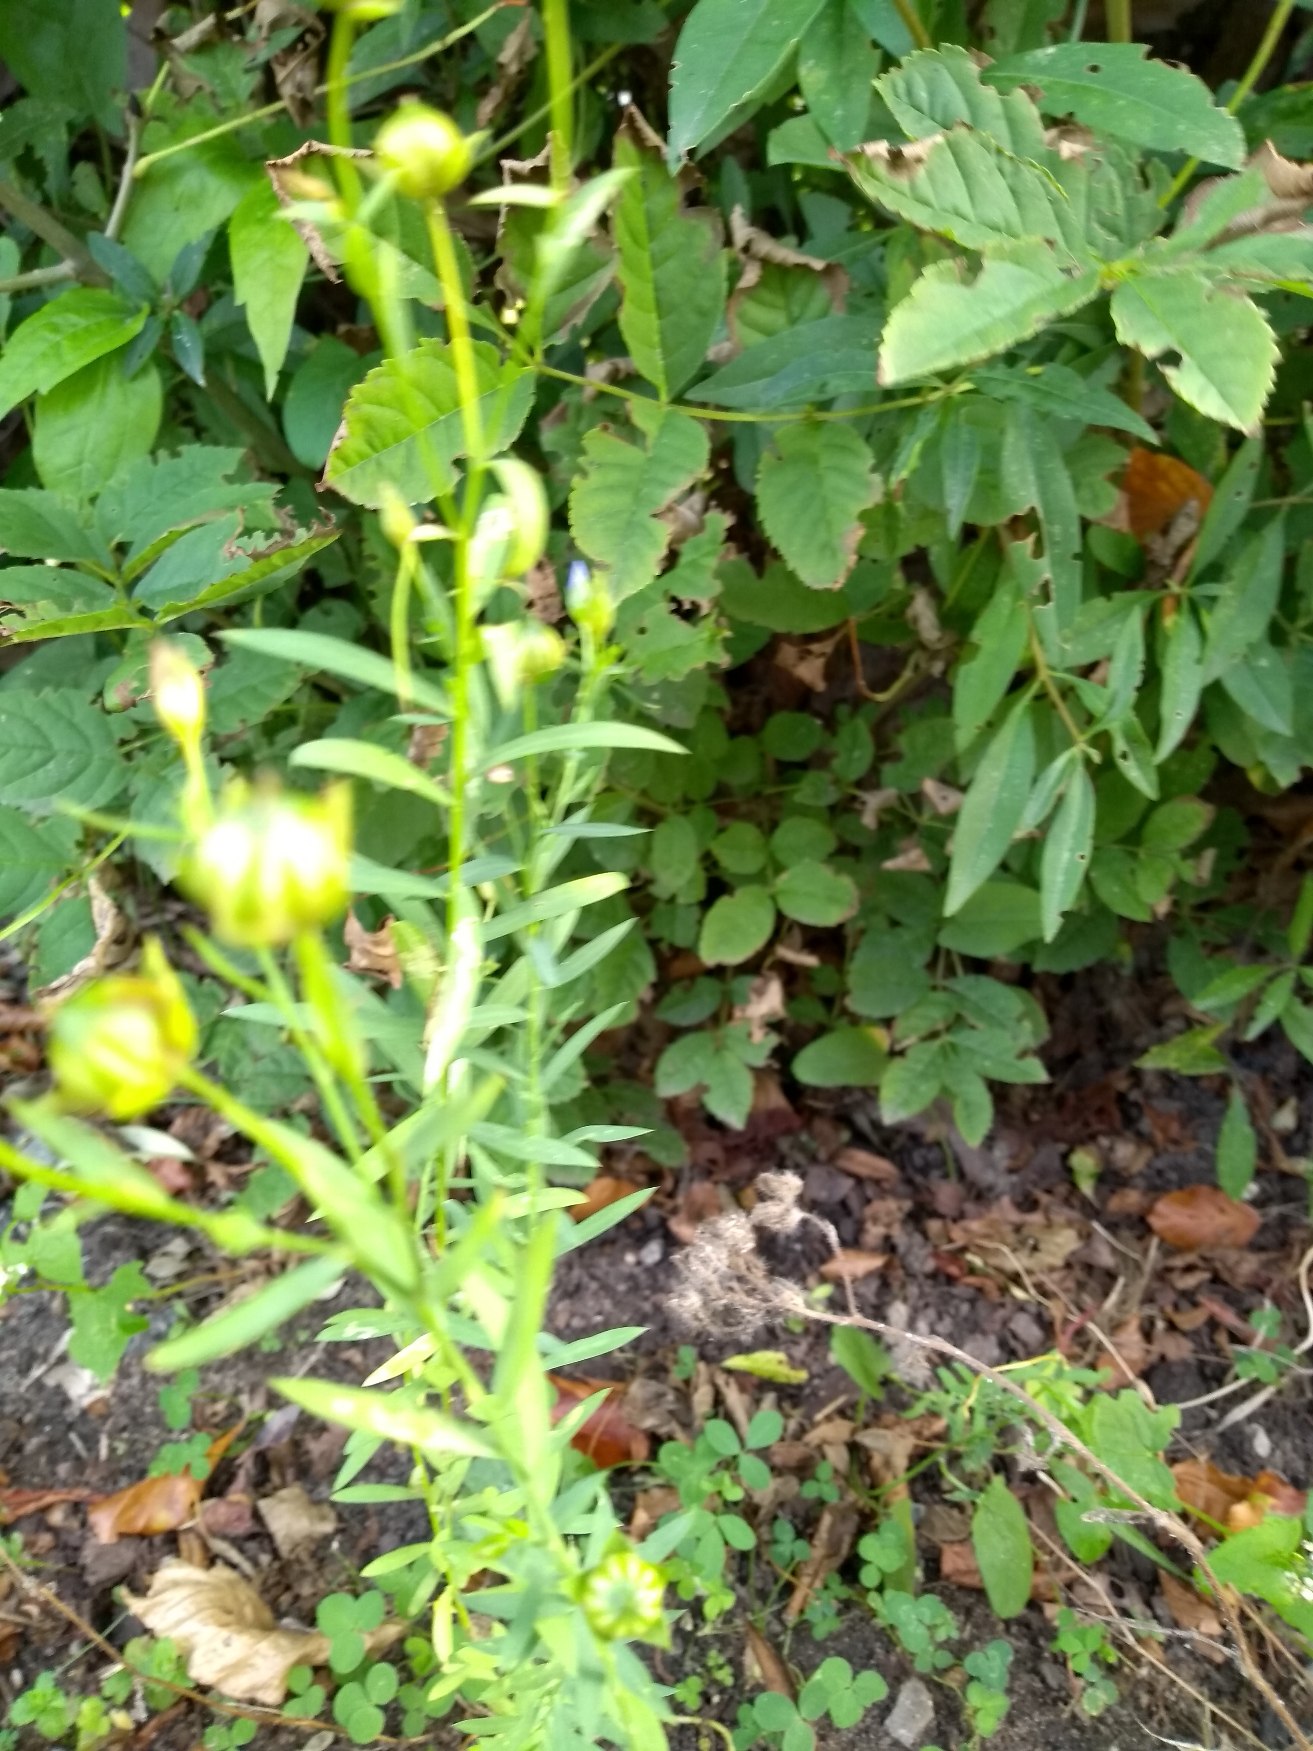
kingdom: Plantae
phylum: Tracheophyta
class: Magnoliopsida
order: Malpighiales
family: Linaceae
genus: Linum
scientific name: Linum usitatissimum
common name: Almindelig hør
